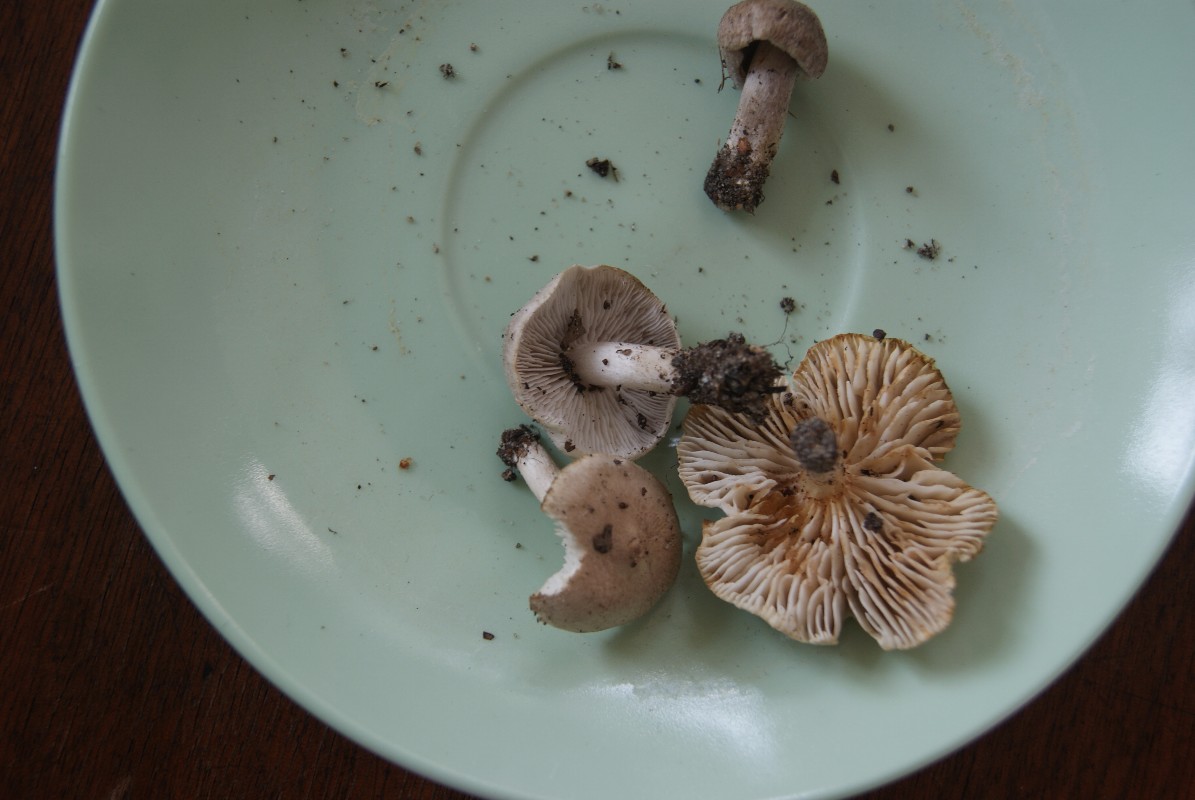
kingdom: Fungi
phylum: Basidiomycota
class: Agaricomycetes
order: Agaricales
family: Tricholomataceae
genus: Tricholoma
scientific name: Tricholoma argyraceum
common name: slør-ridderhat
